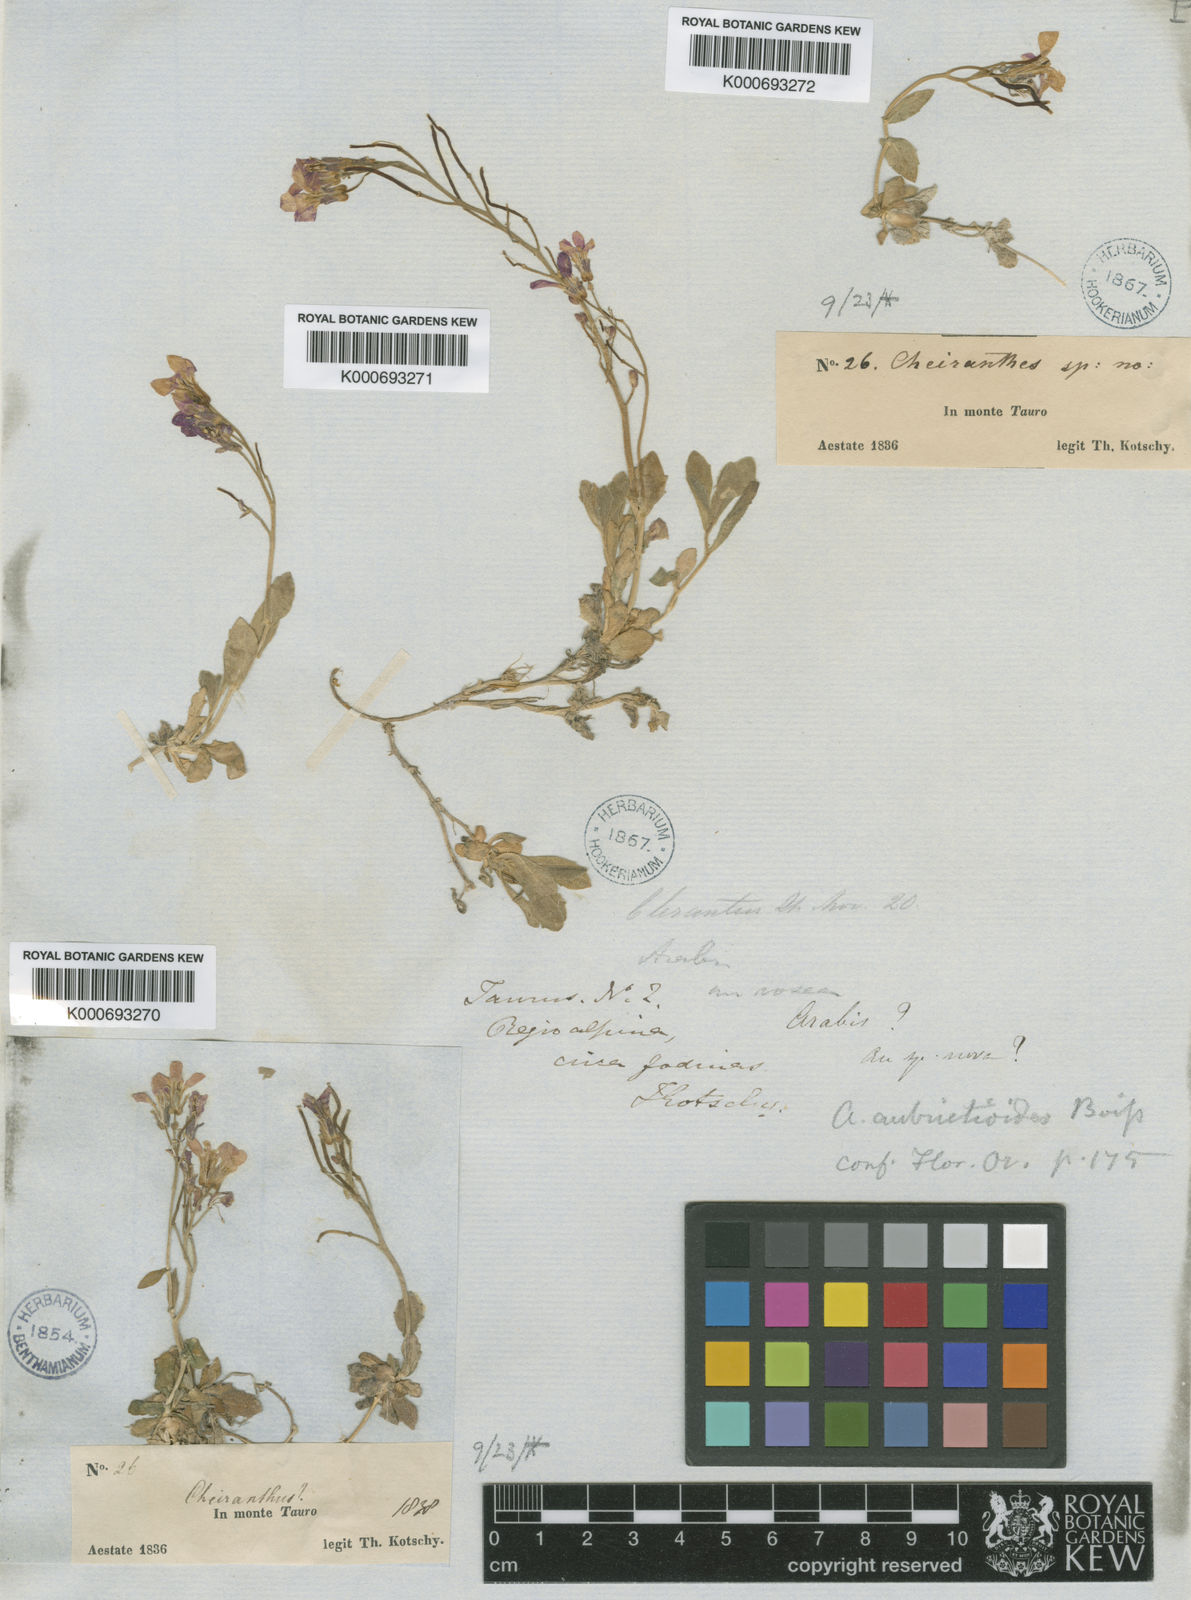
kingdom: Plantae
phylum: Tracheophyta
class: Magnoliopsida
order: Brassicales
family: Brassicaceae
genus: Arabis
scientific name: Arabis aubrietioides
